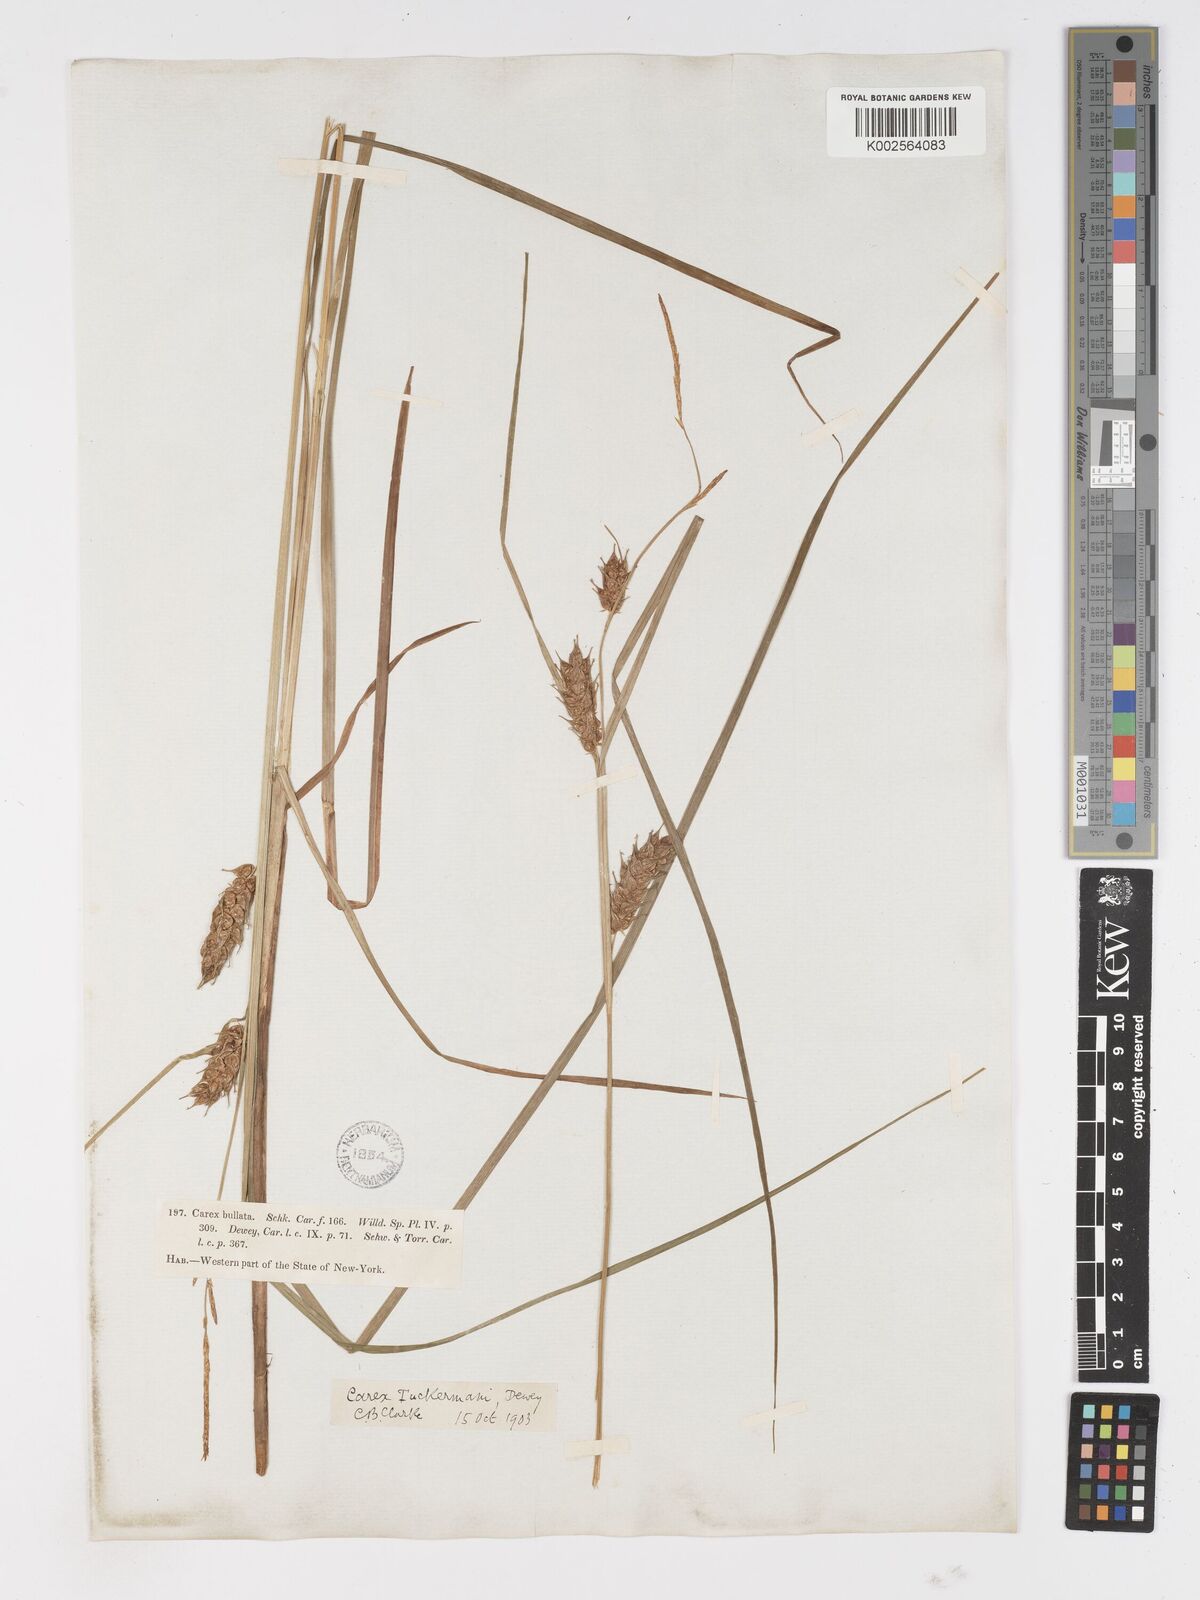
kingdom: Plantae
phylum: Tracheophyta
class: Liliopsida
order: Poales
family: Cyperaceae
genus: Carex
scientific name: Carex tuckermanii
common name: Tuckerman's sedge
